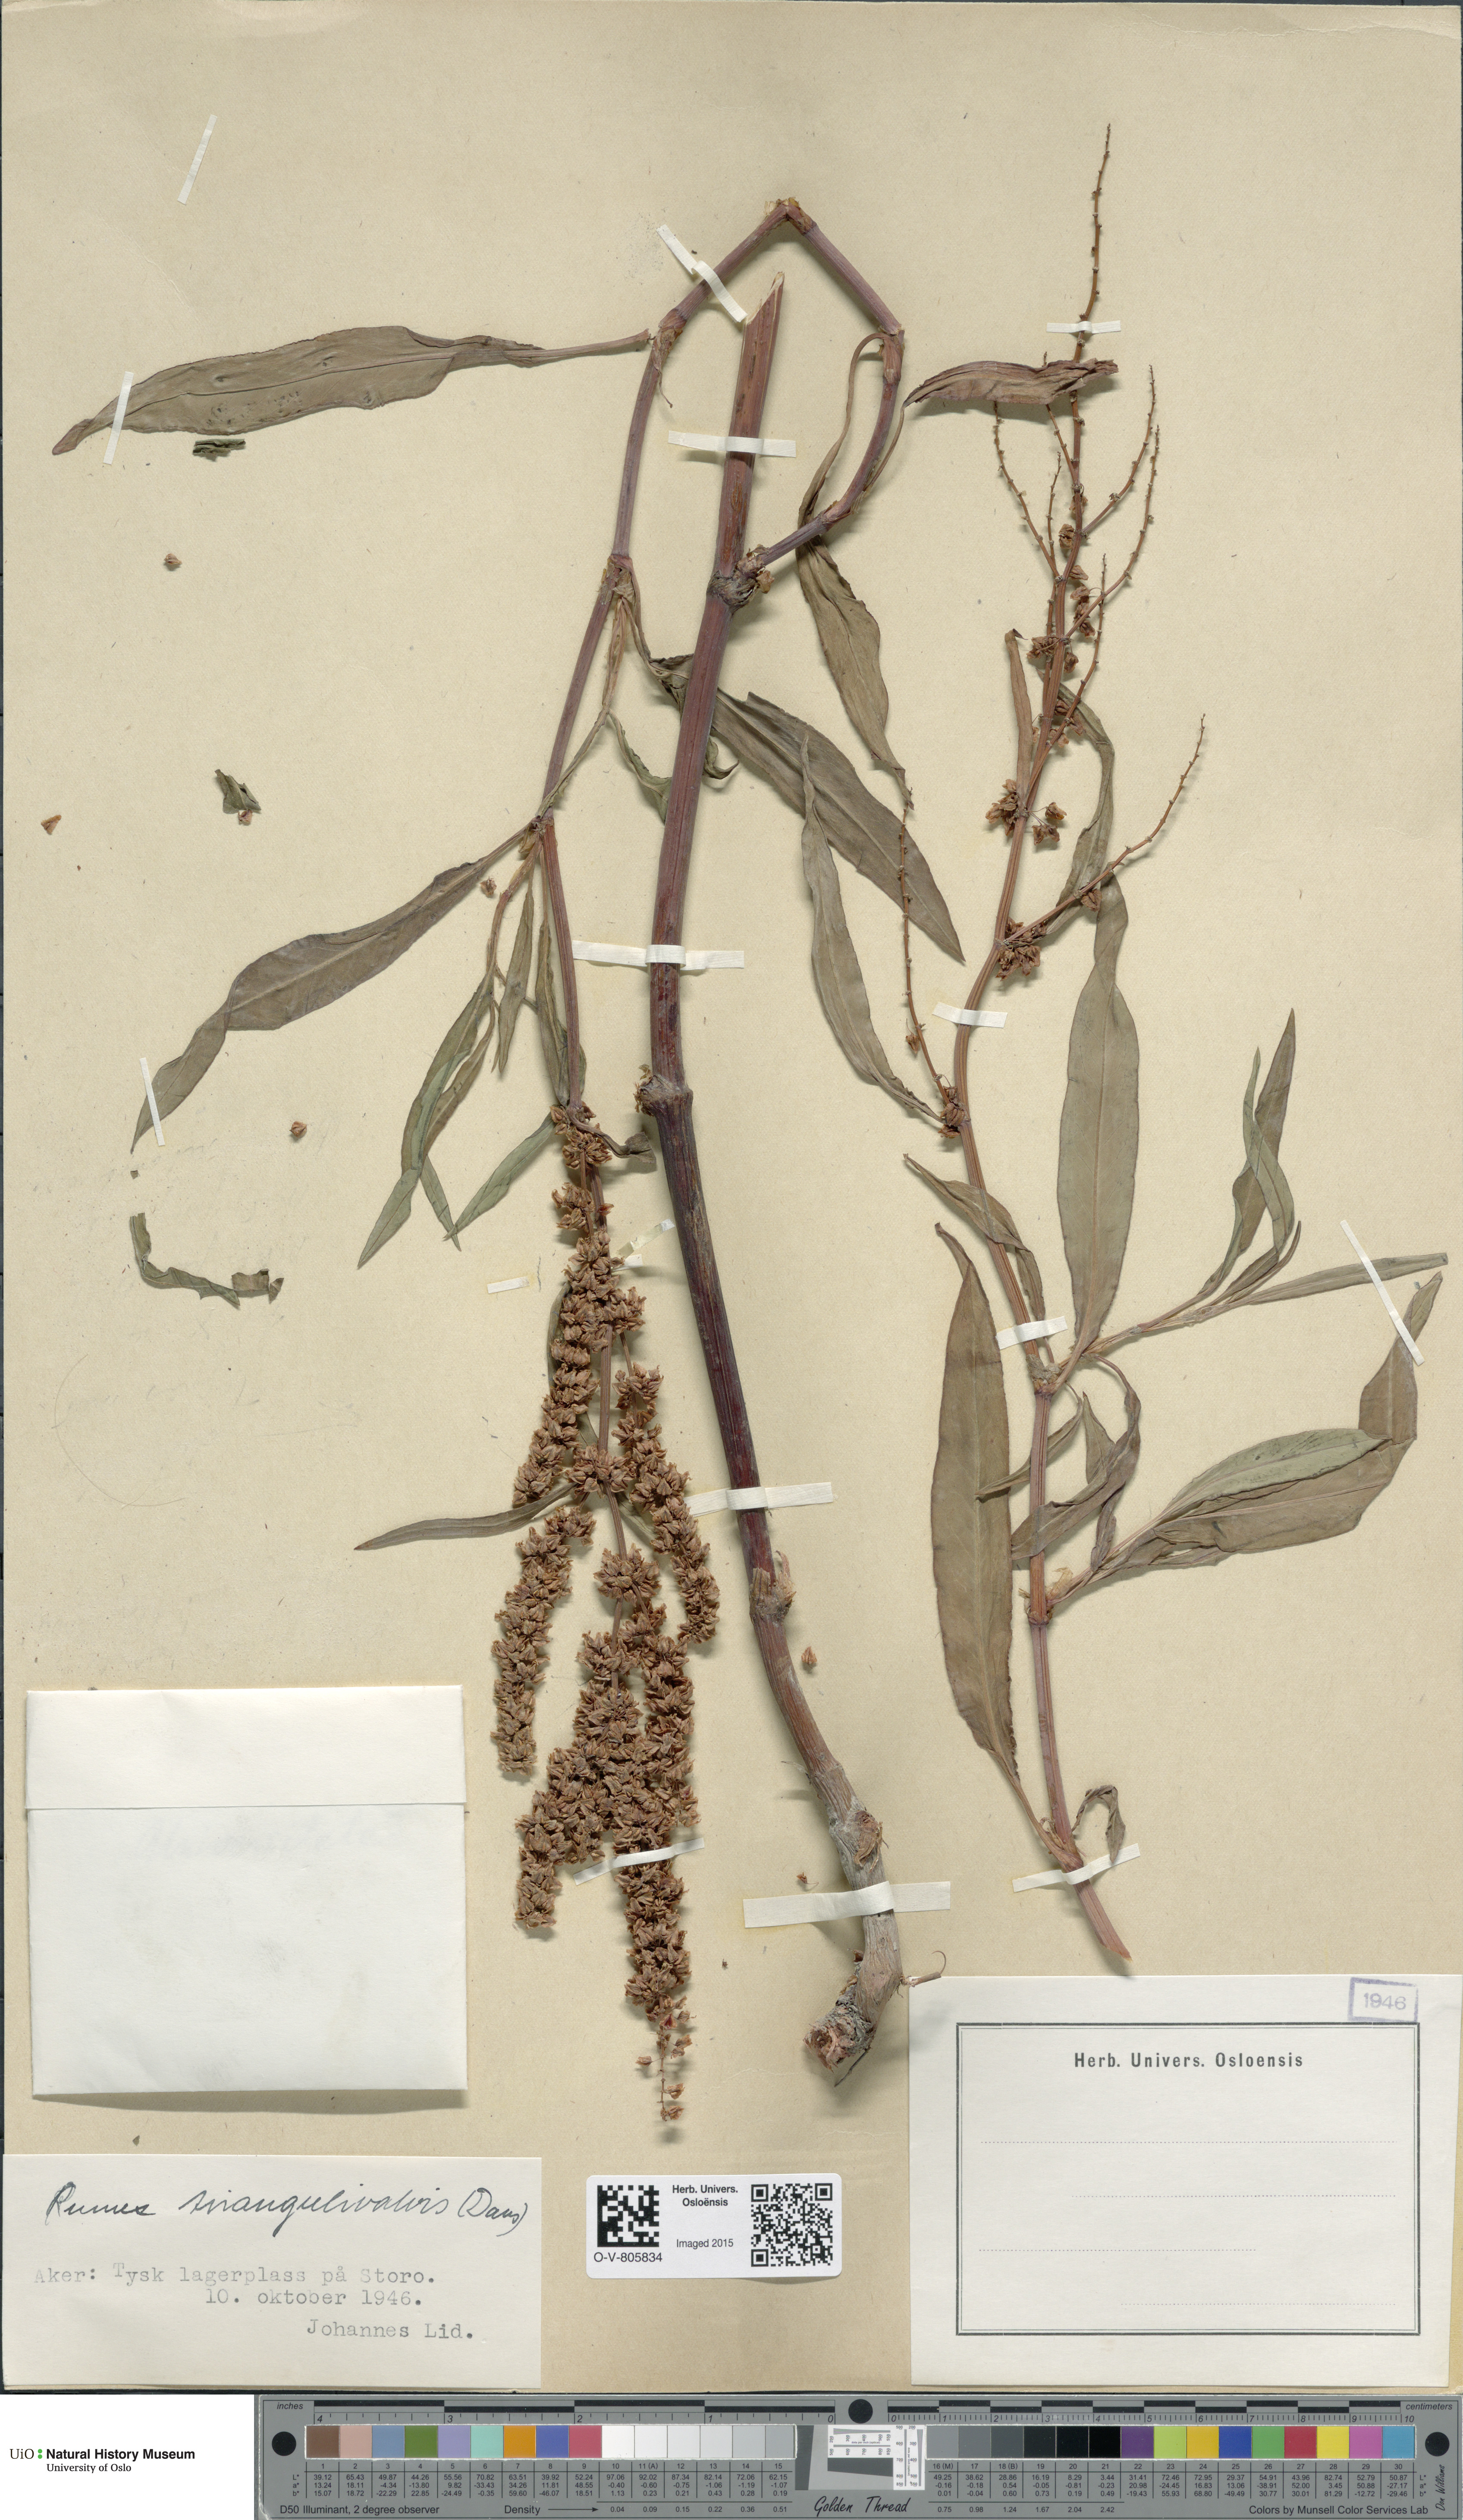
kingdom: Plantae
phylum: Tracheophyta
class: Magnoliopsida
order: Caryophyllales
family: Polygonaceae
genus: Rumex
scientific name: Rumex triangulivalvis
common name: Triangular-valve dock
